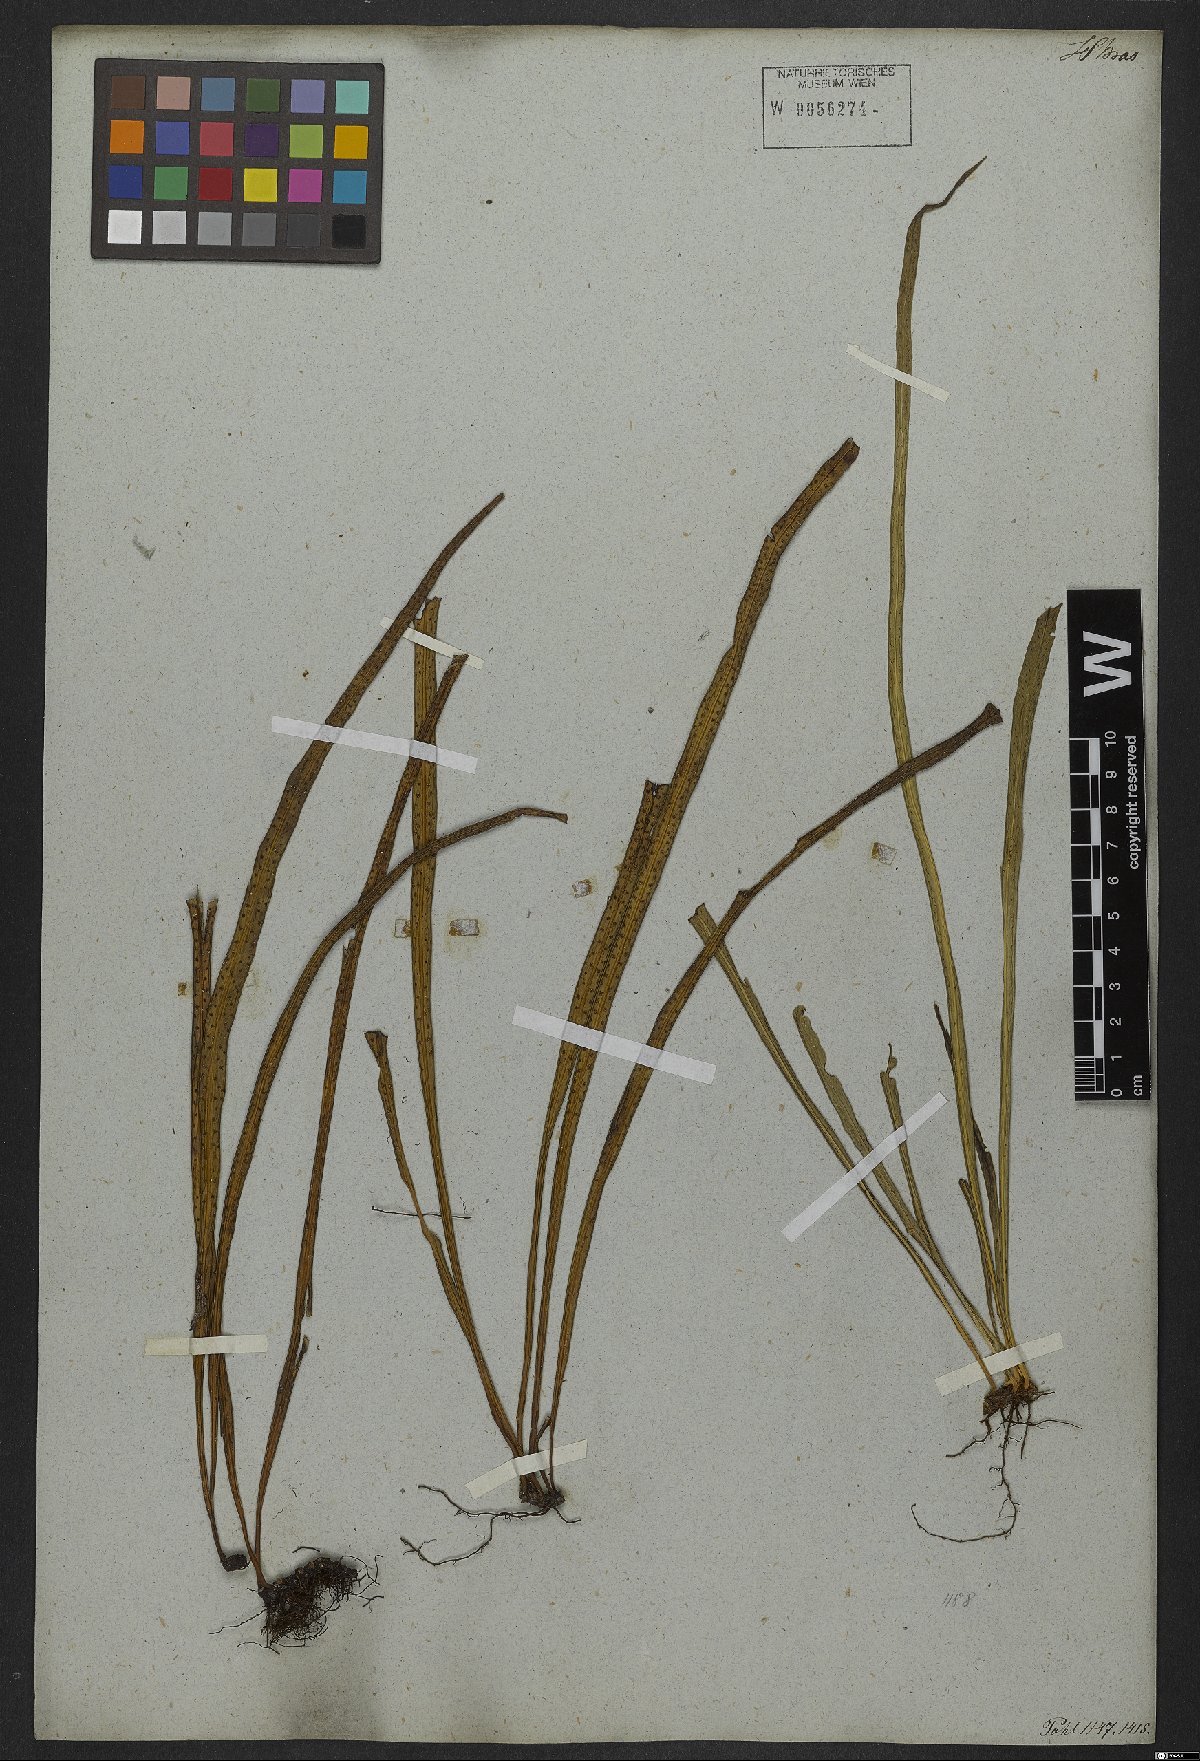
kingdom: Plantae
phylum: Tracheophyta
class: Polypodiopsida
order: Polypodiales
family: Polypodiaceae
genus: Campyloneurum
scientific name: Campyloneurum ensifolium
